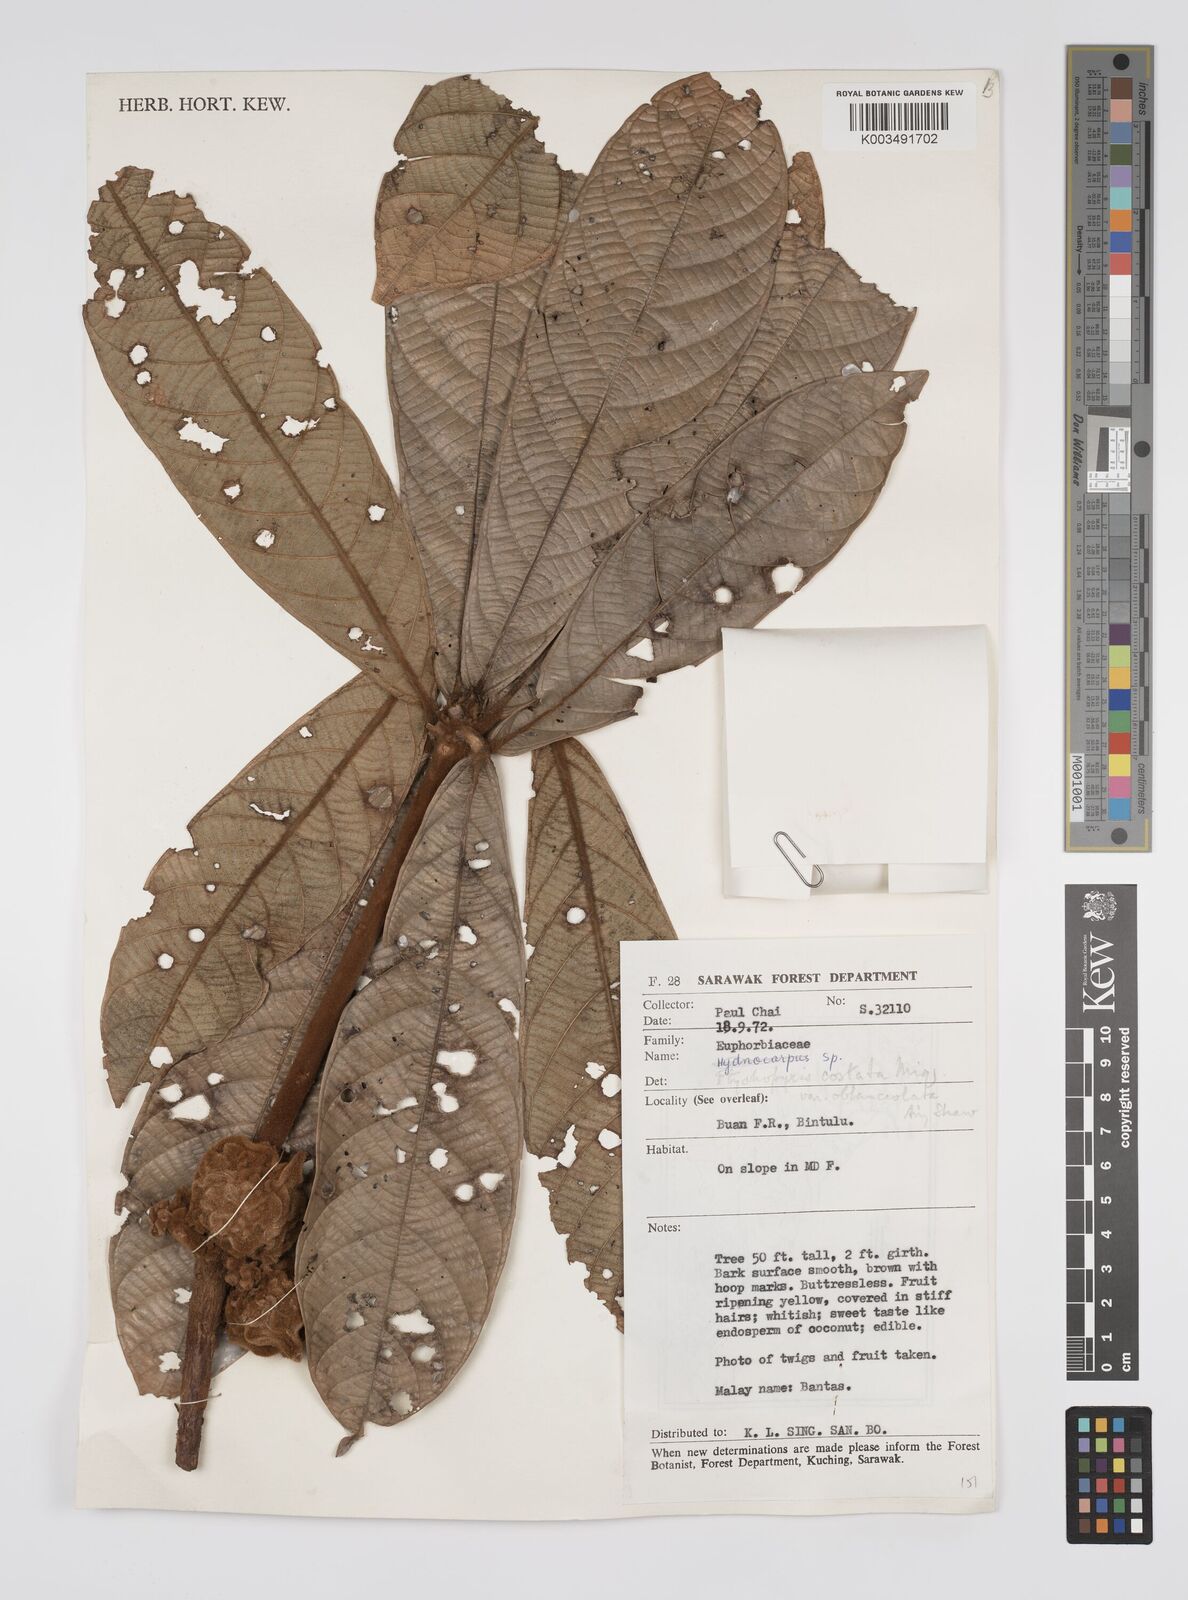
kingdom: Plantae
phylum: Tracheophyta
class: Magnoliopsida
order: Malpighiales
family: Euphorbiaceae
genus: Ptychopyxis
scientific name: Ptychopyxis costata
